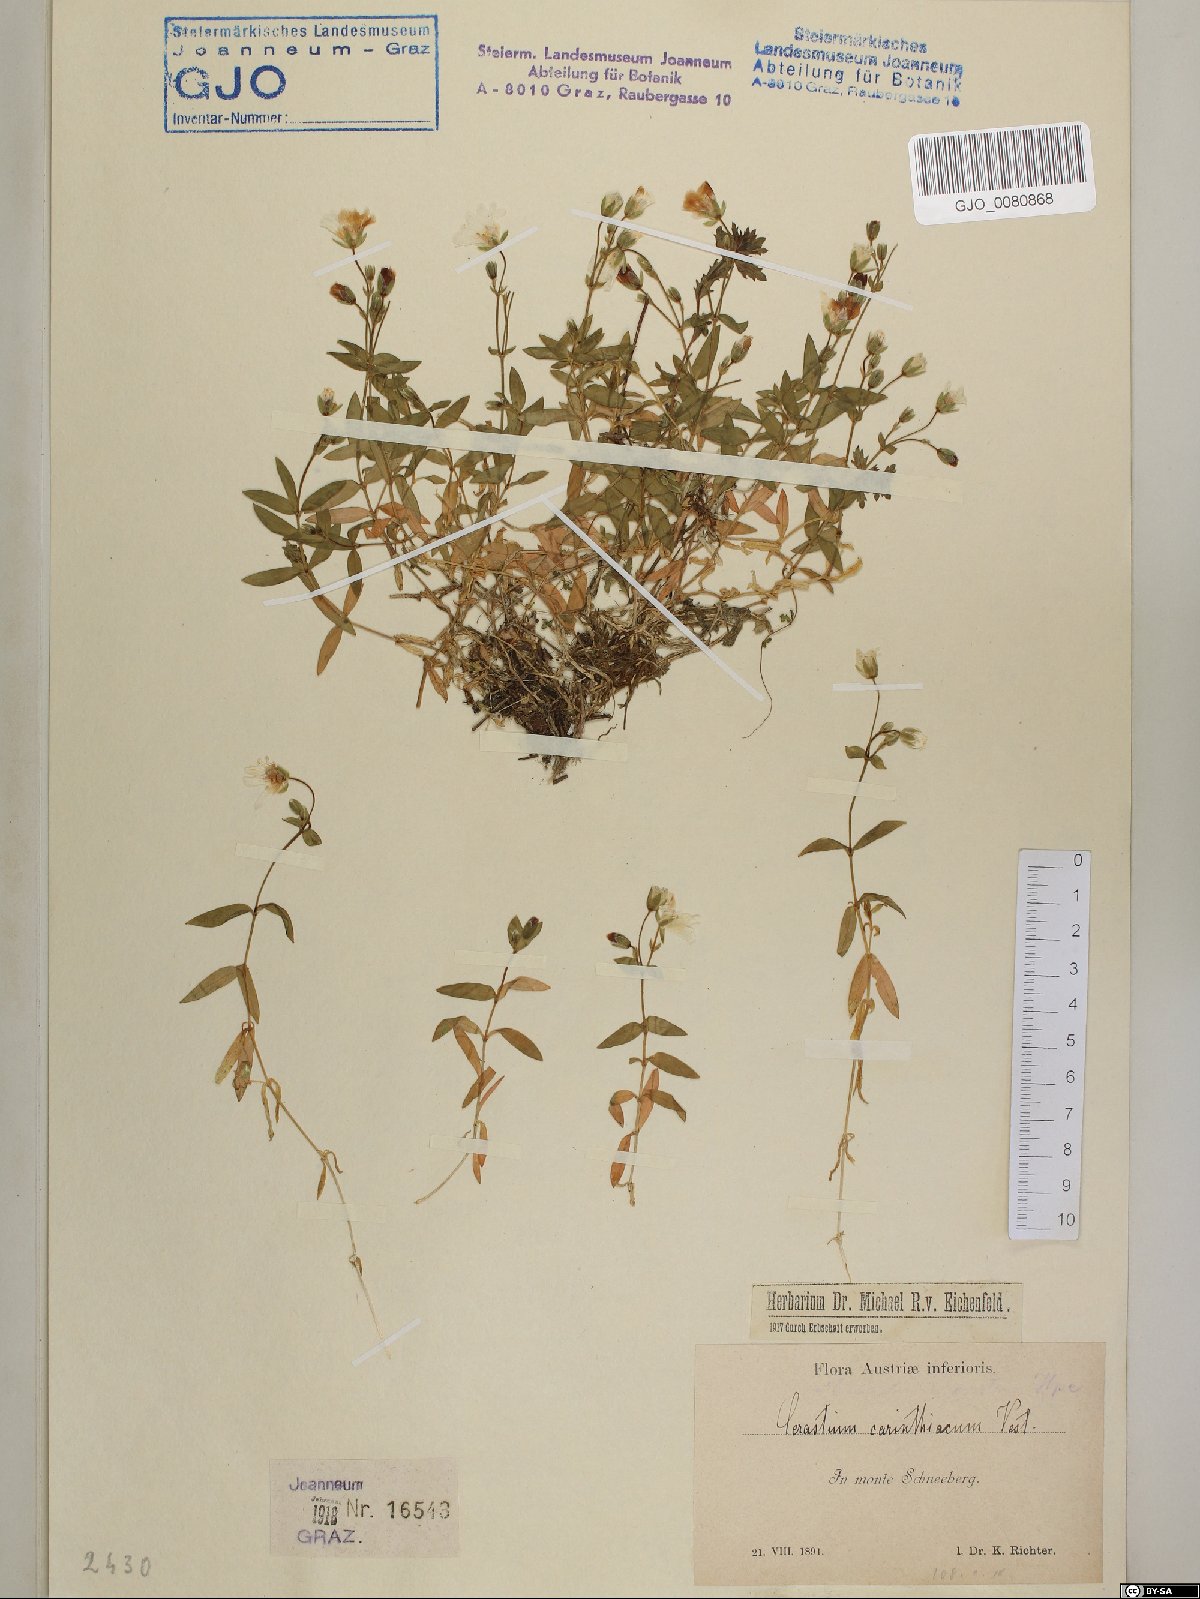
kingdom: Plantae
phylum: Tracheophyta
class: Magnoliopsida
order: Caryophyllales
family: Caryophyllaceae
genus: Cerastium
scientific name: Cerastium carinthiacum
